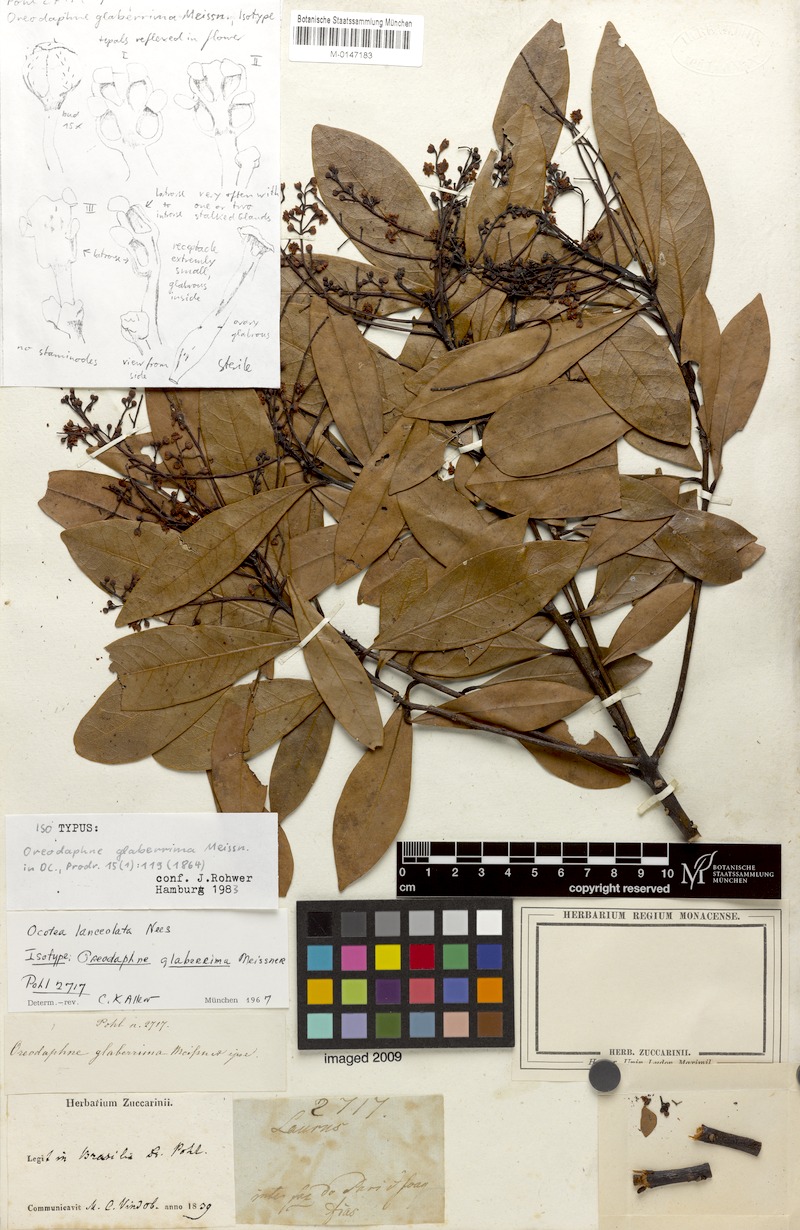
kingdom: Plantae
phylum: Tracheophyta
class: Magnoliopsida
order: Laurales
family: Lauraceae
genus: Ocotea
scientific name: Ocotea lancifolia
